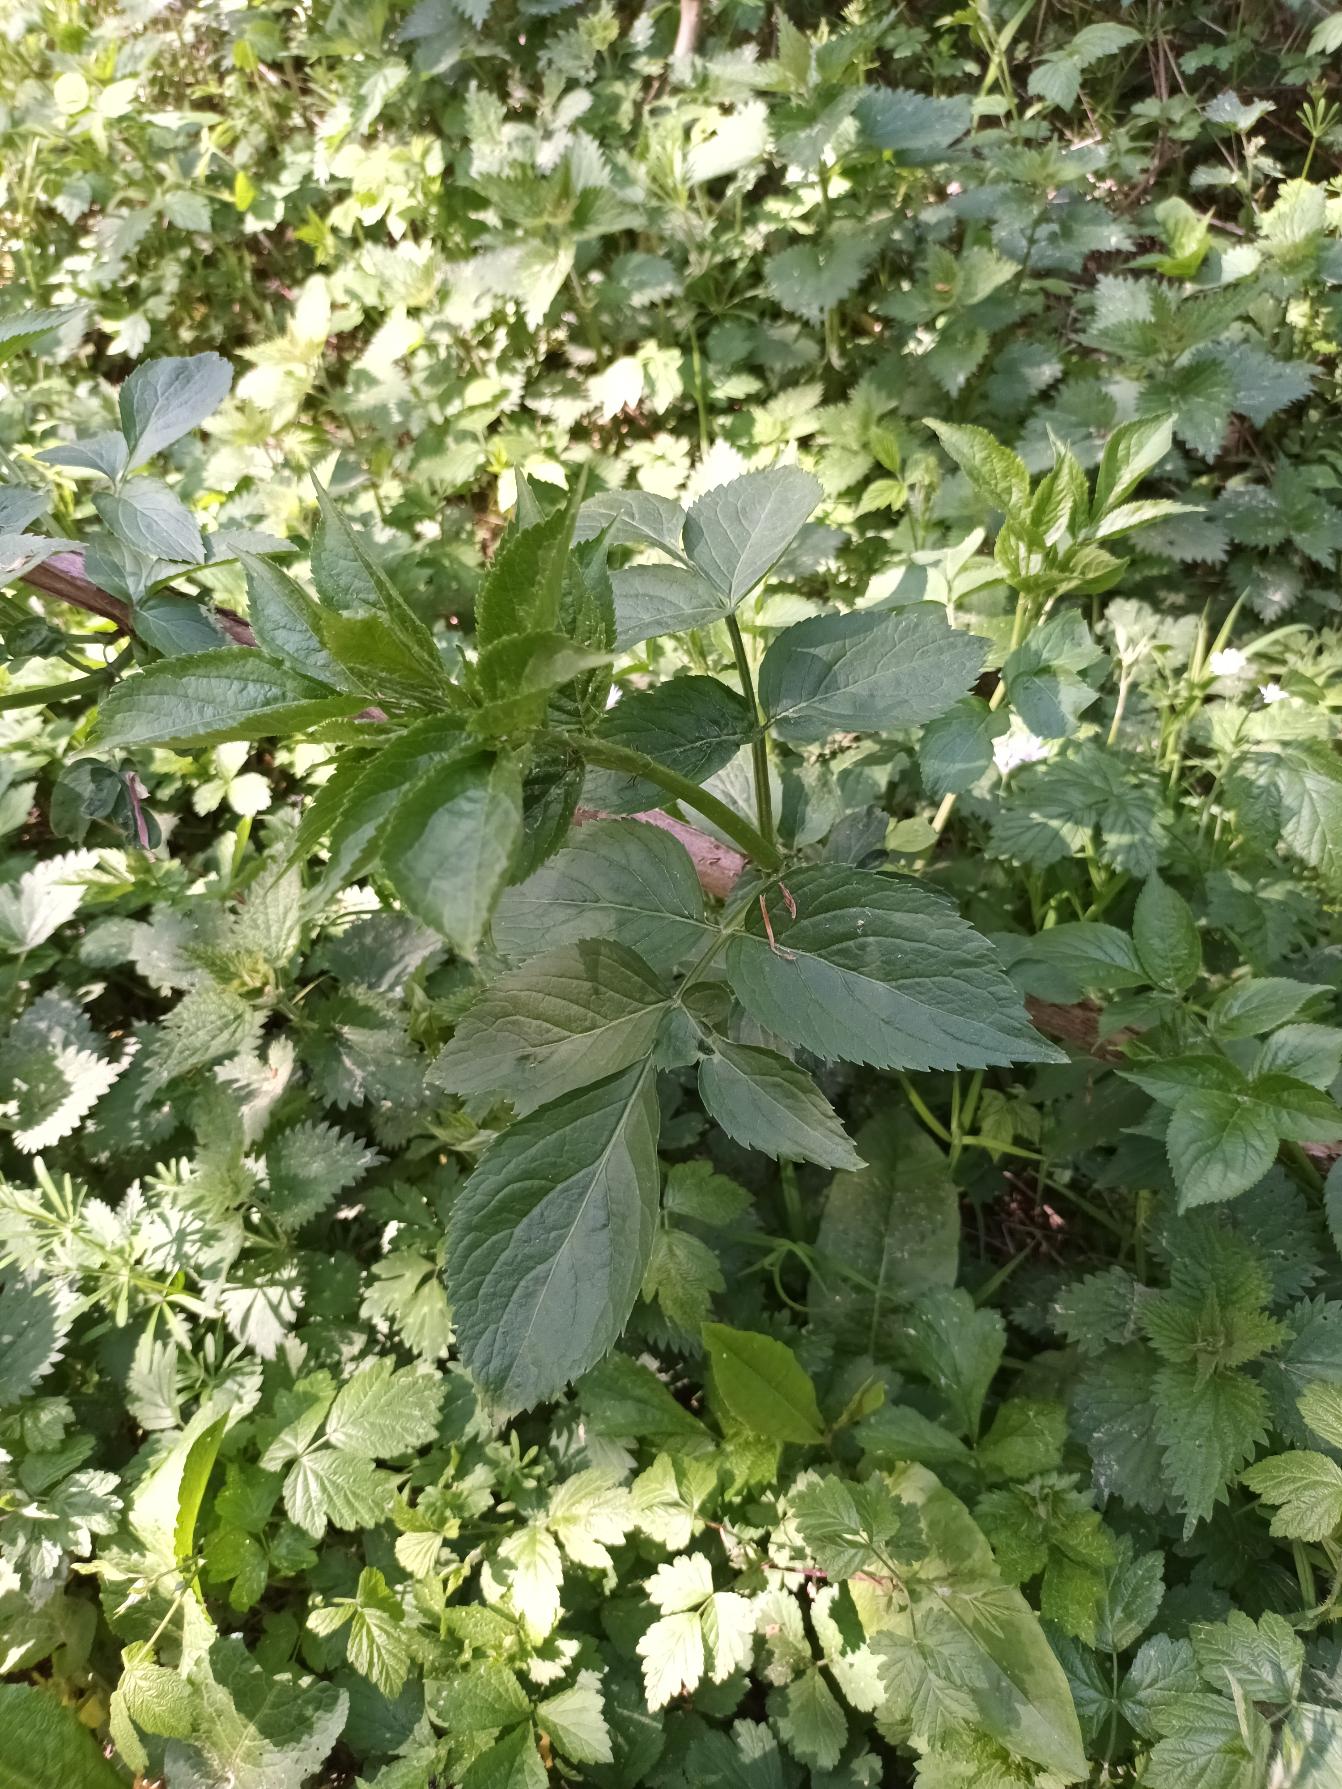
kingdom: Plantae
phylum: Tracheophyta
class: Magnoliopsida
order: Dipsacales
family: Viburnaceae
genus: Sambucus
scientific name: Sambucus nigra
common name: Almindelig hyld
